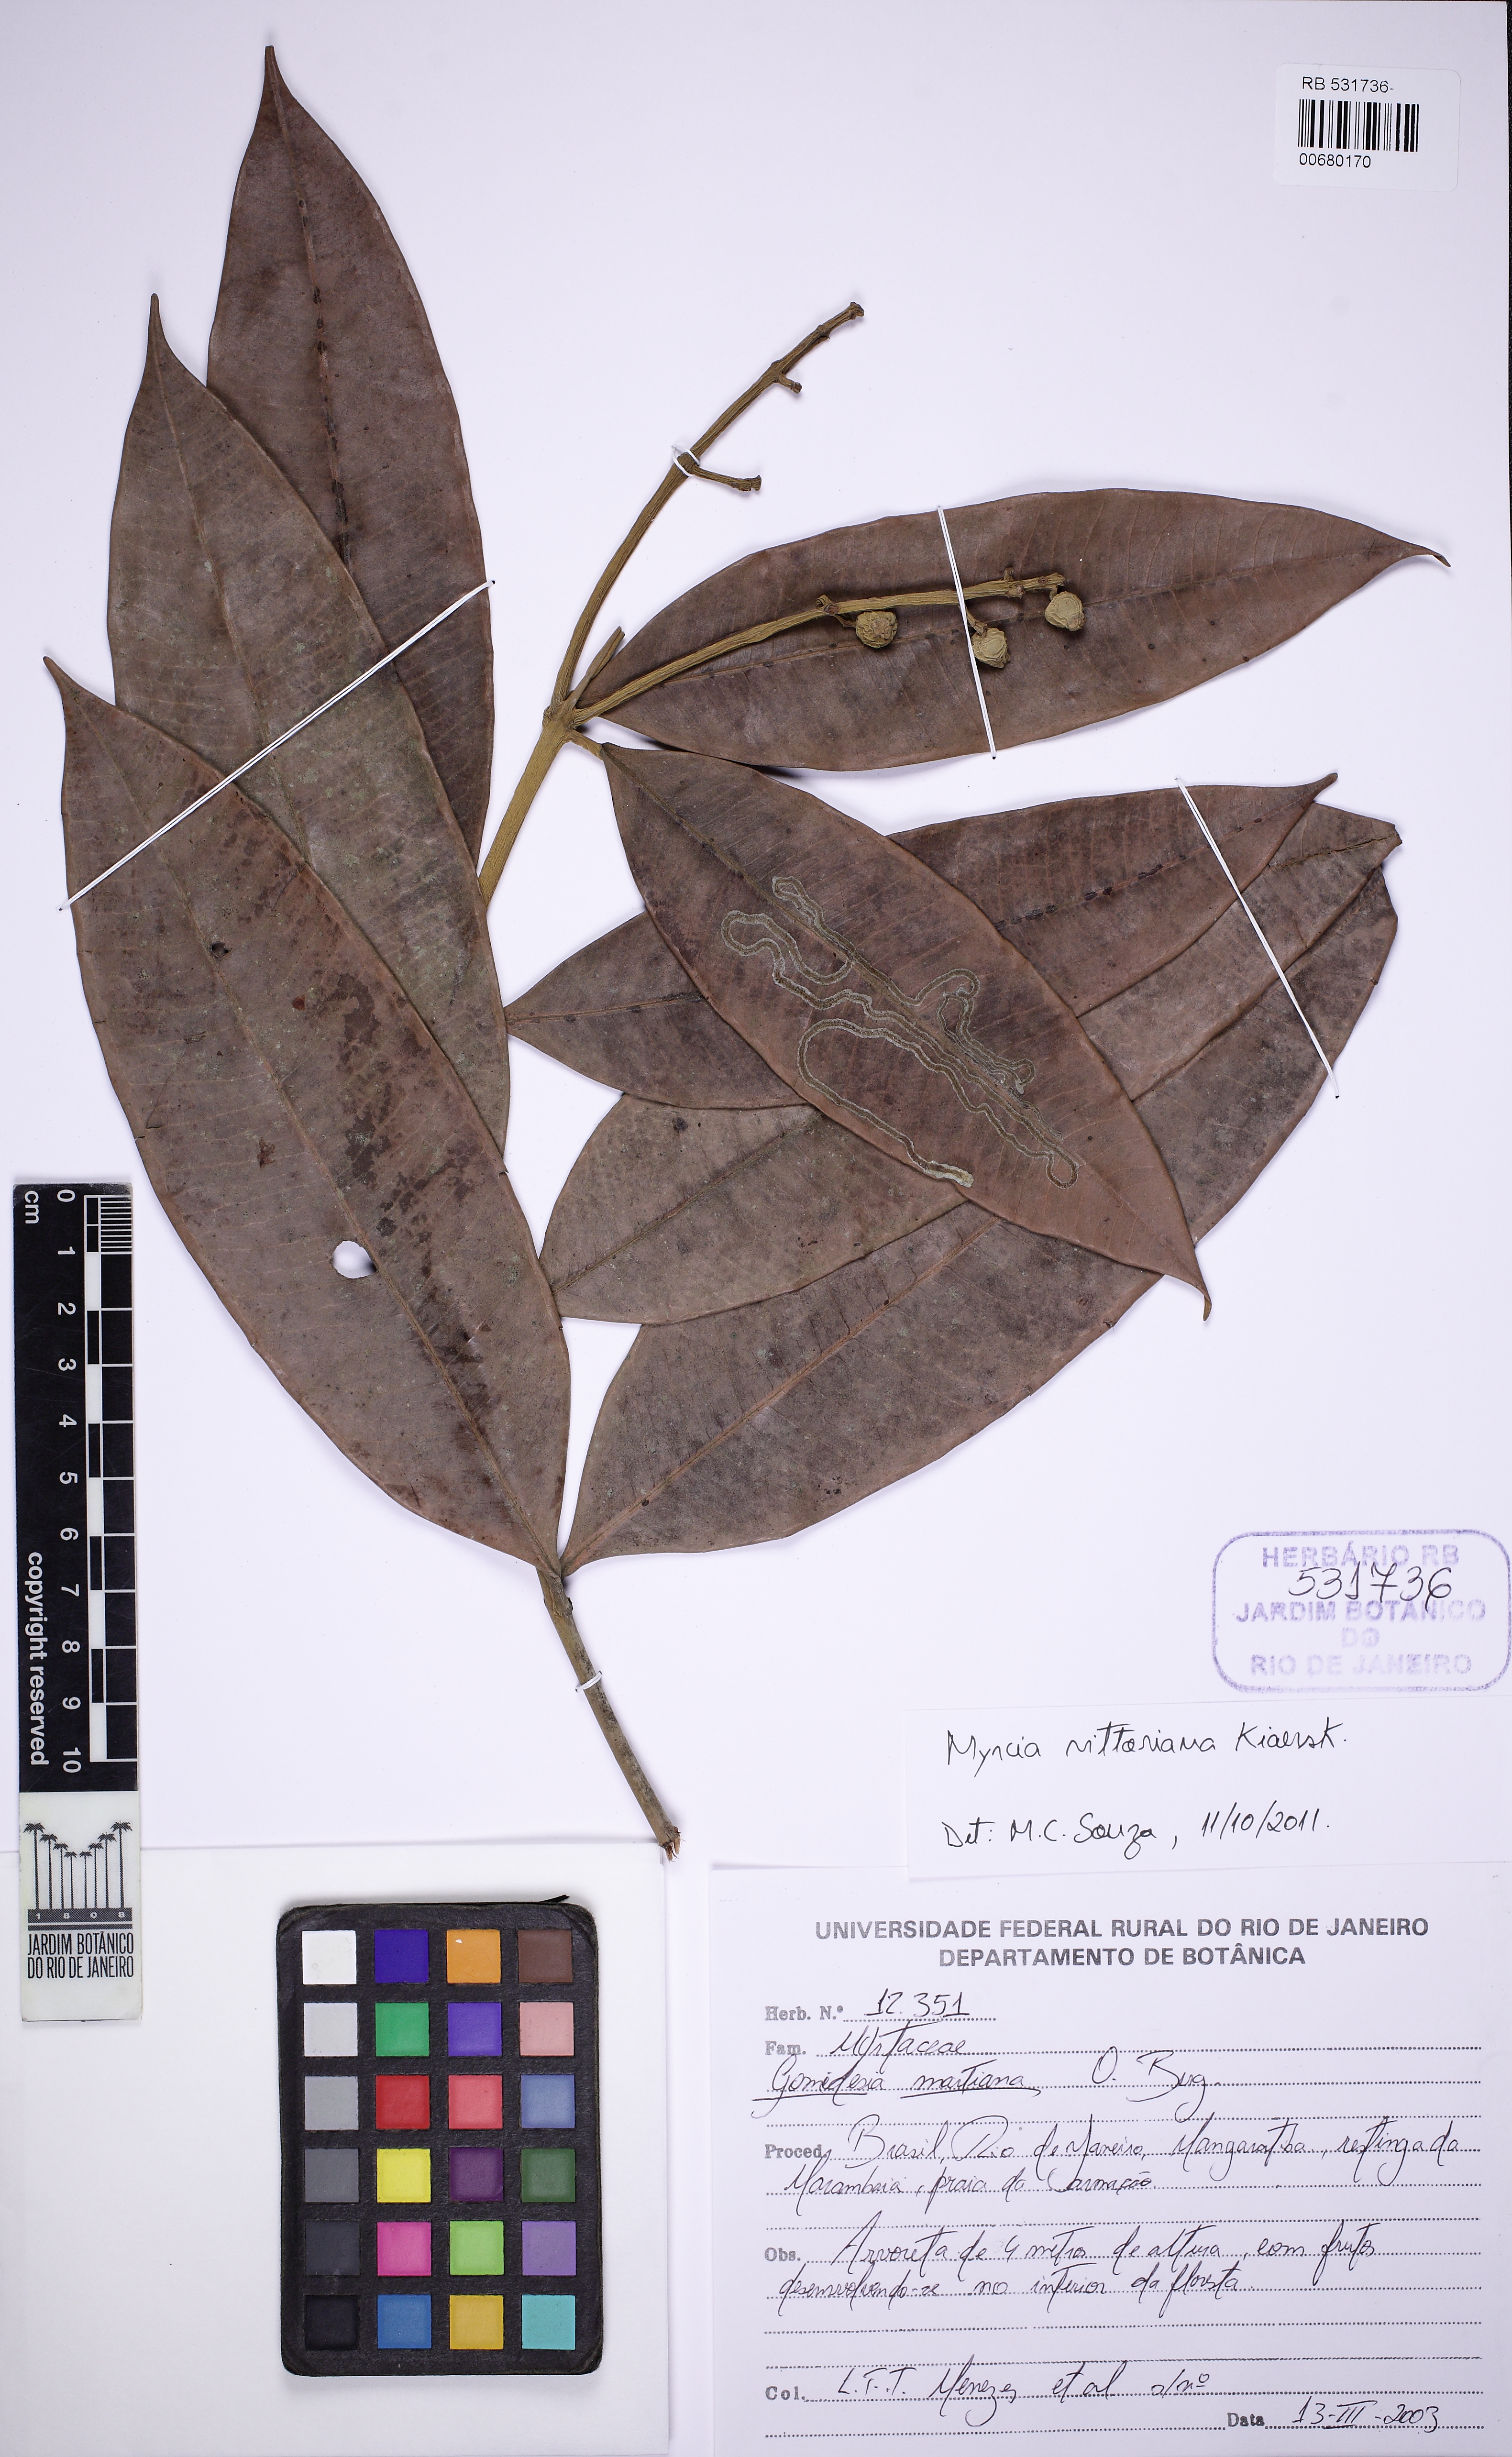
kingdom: Plantae
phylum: Tracheophyta
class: Magnoliopsida
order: Myrtales
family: Myrtaceae
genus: Myrcia
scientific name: Myrcia vittoriana
